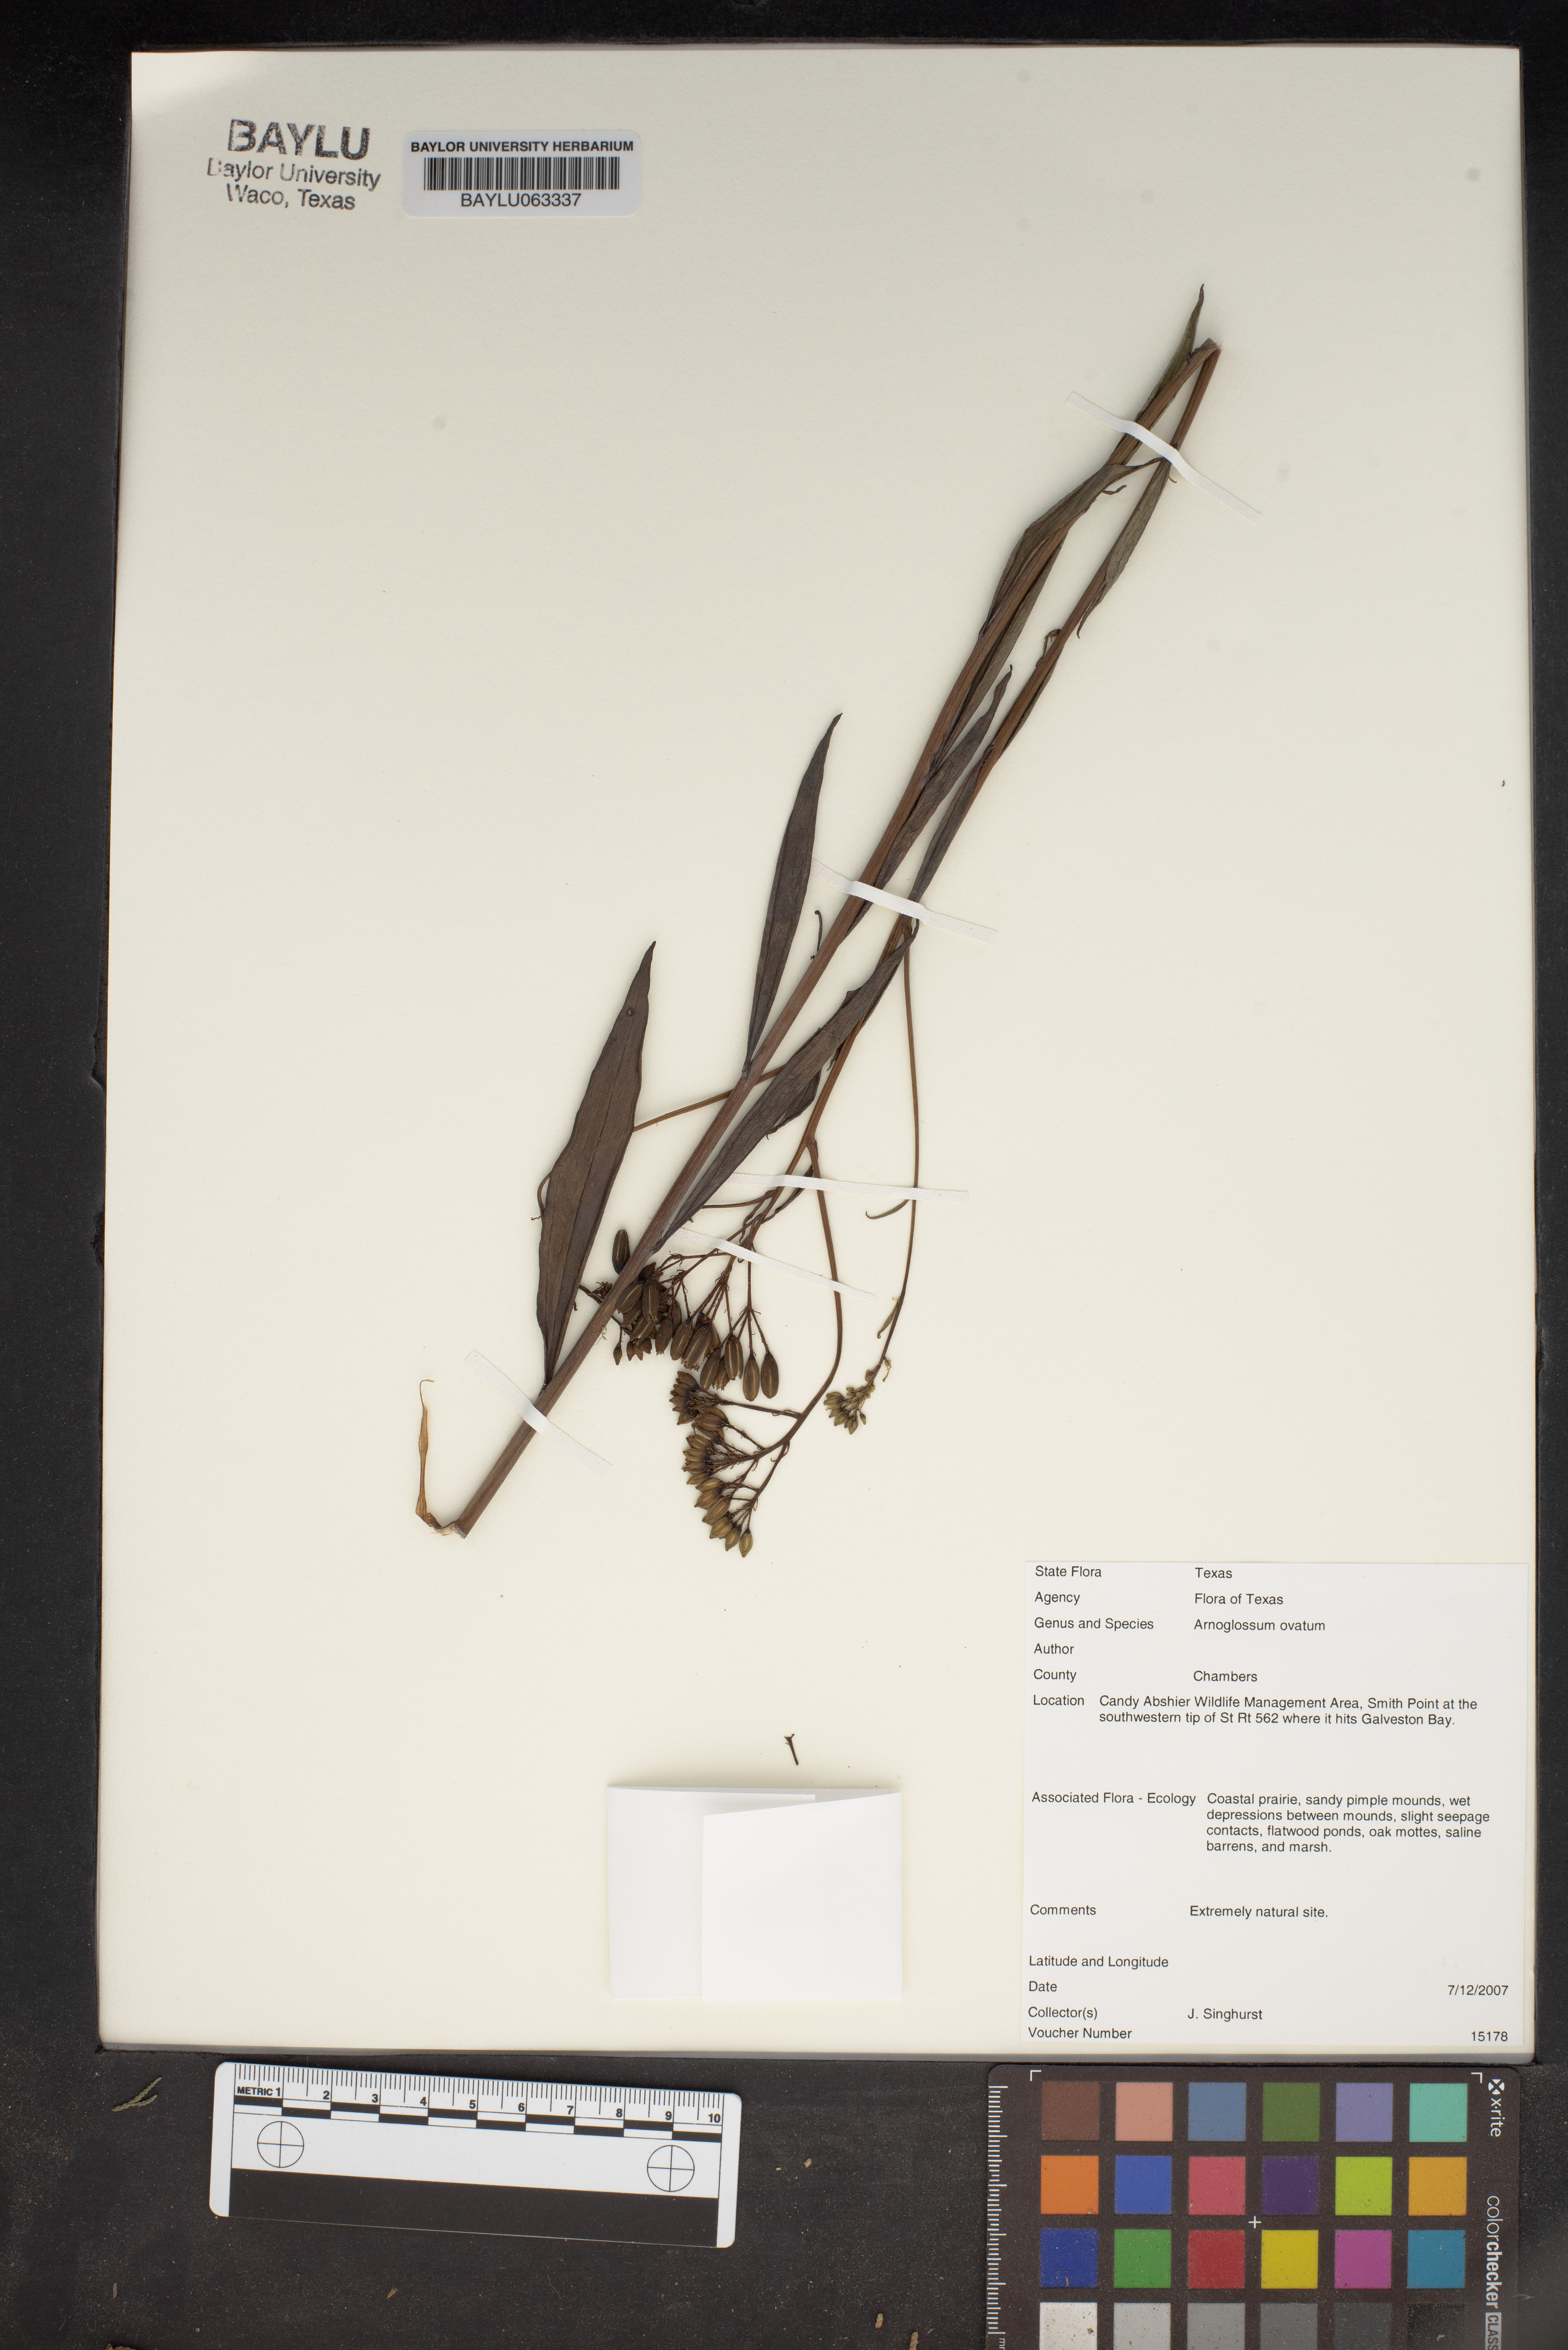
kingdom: Plantae
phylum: Tracheophyta
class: Magnoliopsida
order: Asterales
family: Asteraceae
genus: Arnoglossum
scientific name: Arnoglossum ovatum
